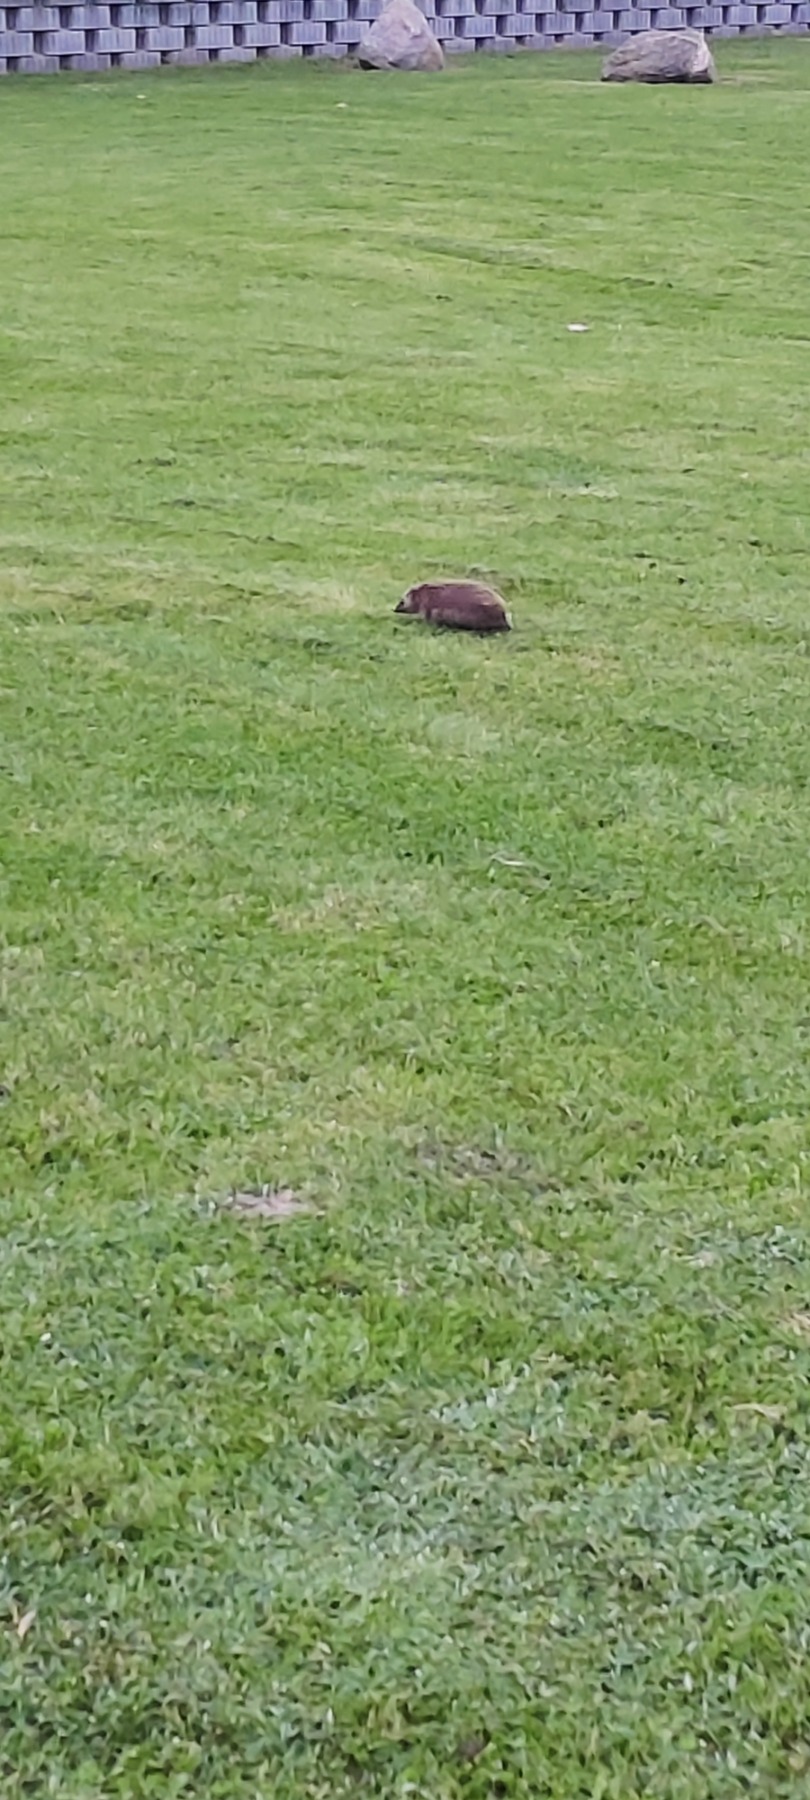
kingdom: Animalia
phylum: Chordata
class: Mammalia
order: Erinaceomorpha
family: Erinaceidae
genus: Erinaceus
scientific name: Erinaceus europaeus
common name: Pindsvin
